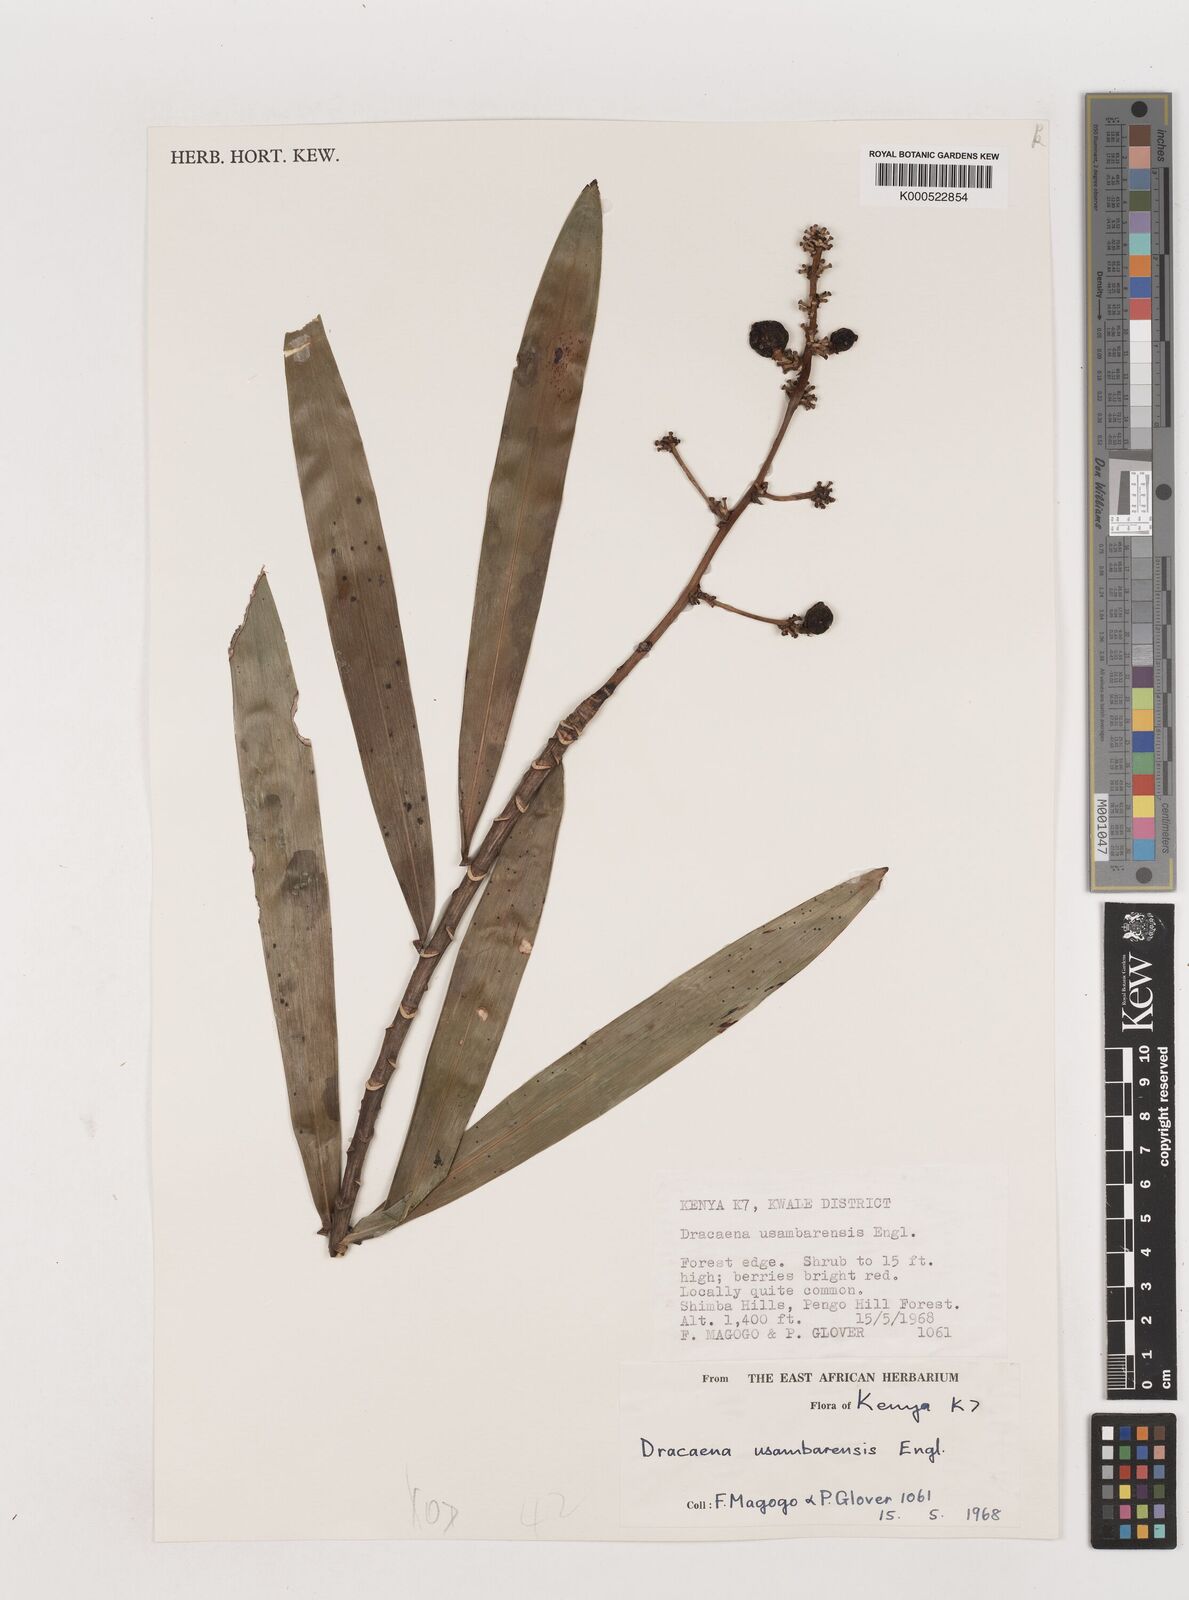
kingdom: Plantae
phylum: Tracheophyta
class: Liliopsida
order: Asparagales
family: Asparagaceae
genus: Dracaena
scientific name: Dracaena usambarensis
